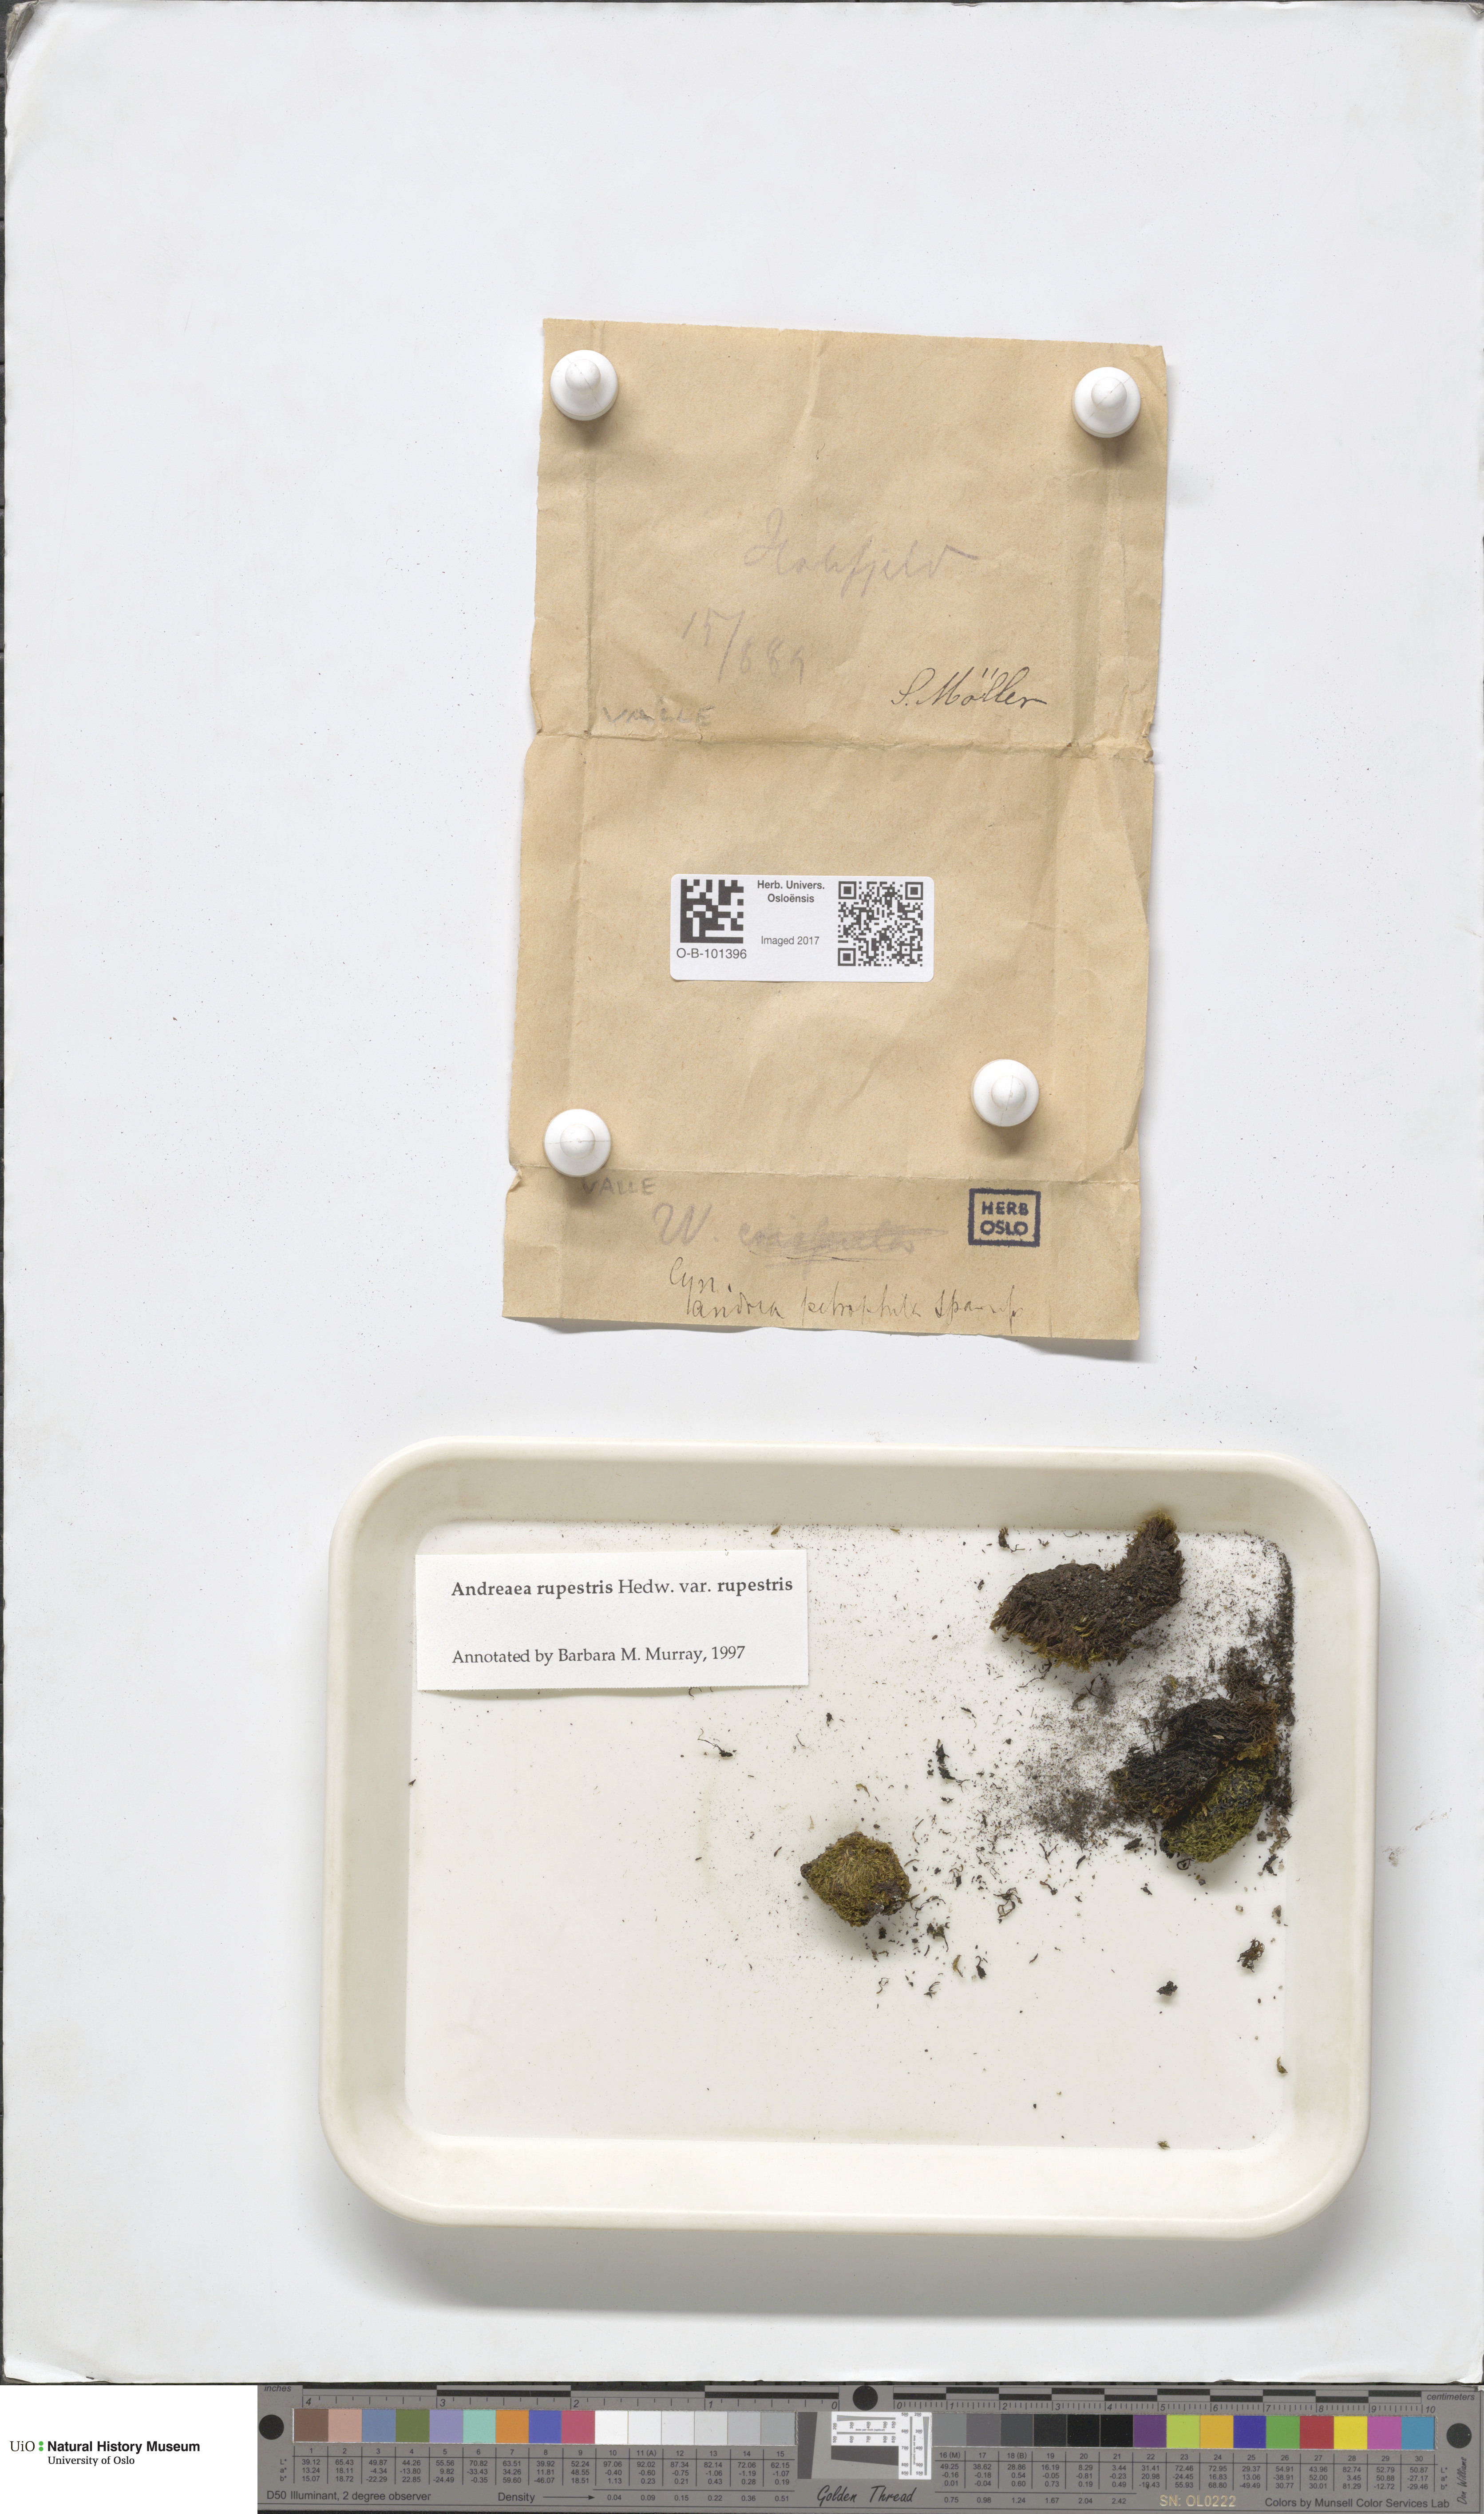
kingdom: Plantae
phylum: Bryophyta
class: Andreaeopsida
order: Andreaeales
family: Andreaeaceae
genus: Andreaea
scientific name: Andreaea rupestris
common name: Black rock moss
